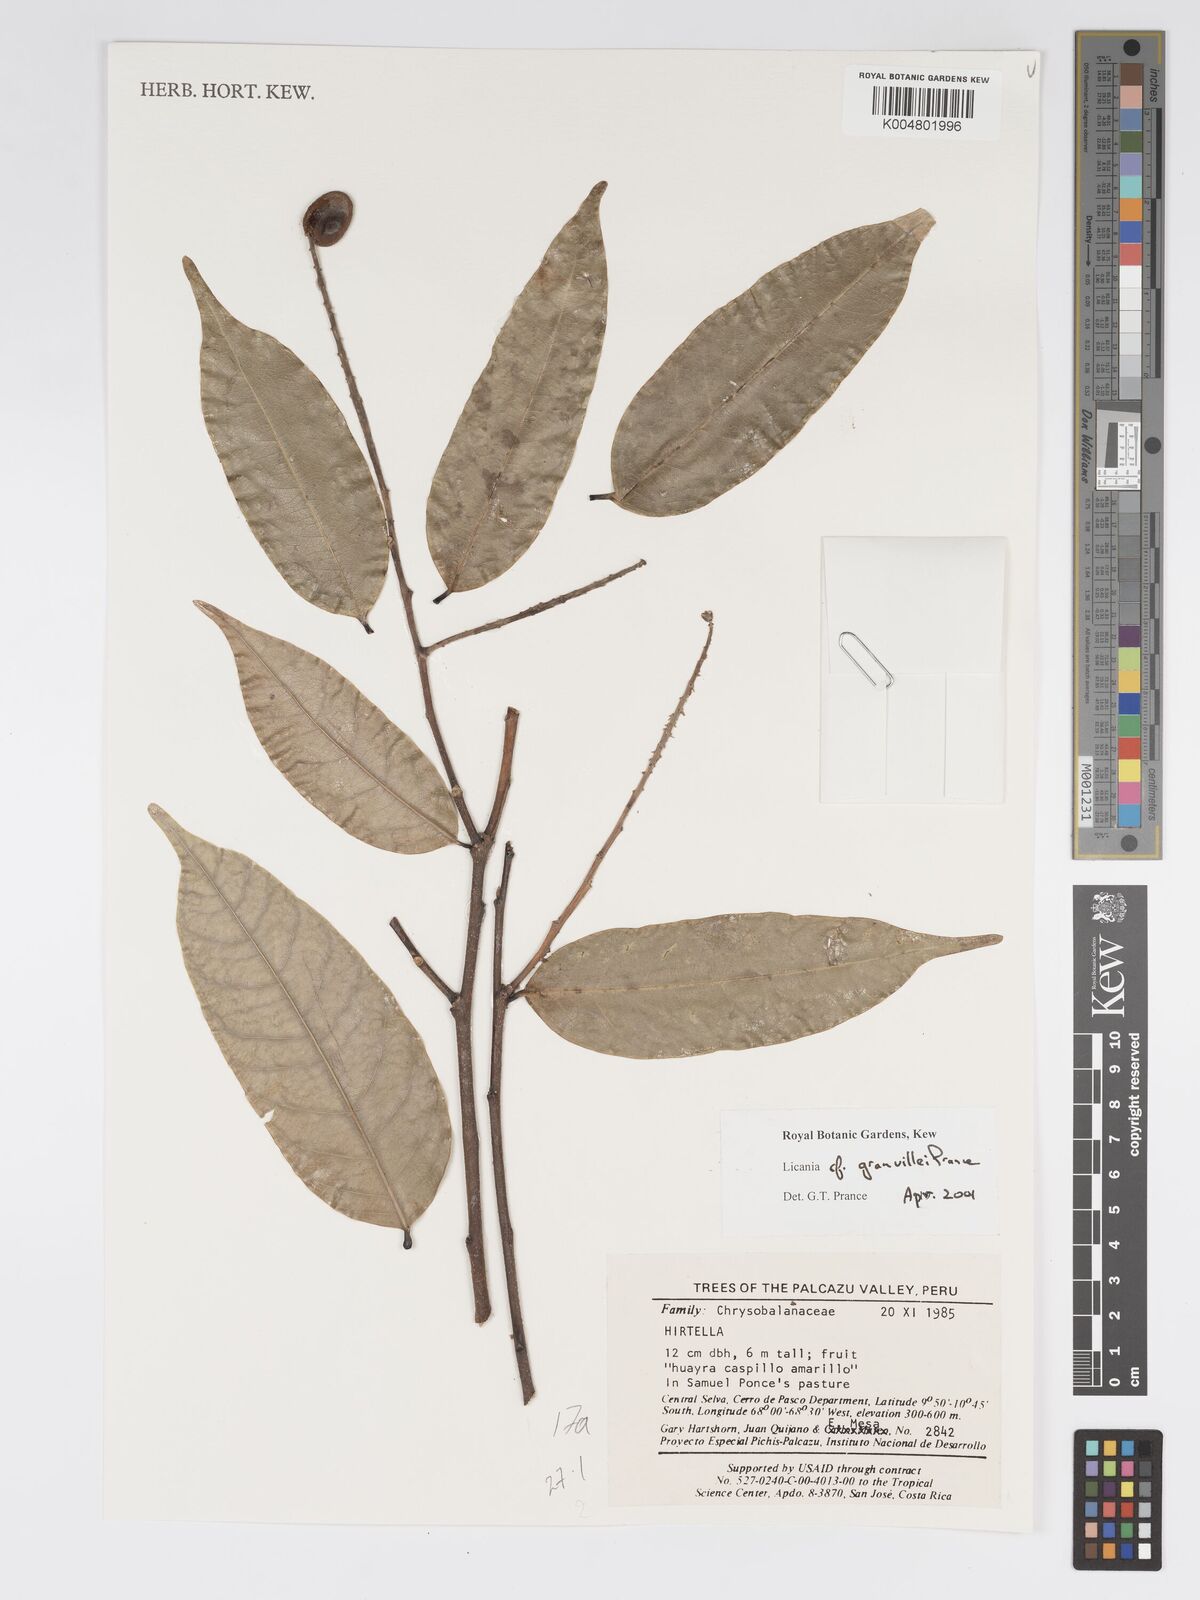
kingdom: Plantae
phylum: Tracheophyta
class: Magnoliopsida
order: Malpighiales
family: Chrysobalanaceae
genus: Leptobalanus
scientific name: Leptobalanus granvillei
